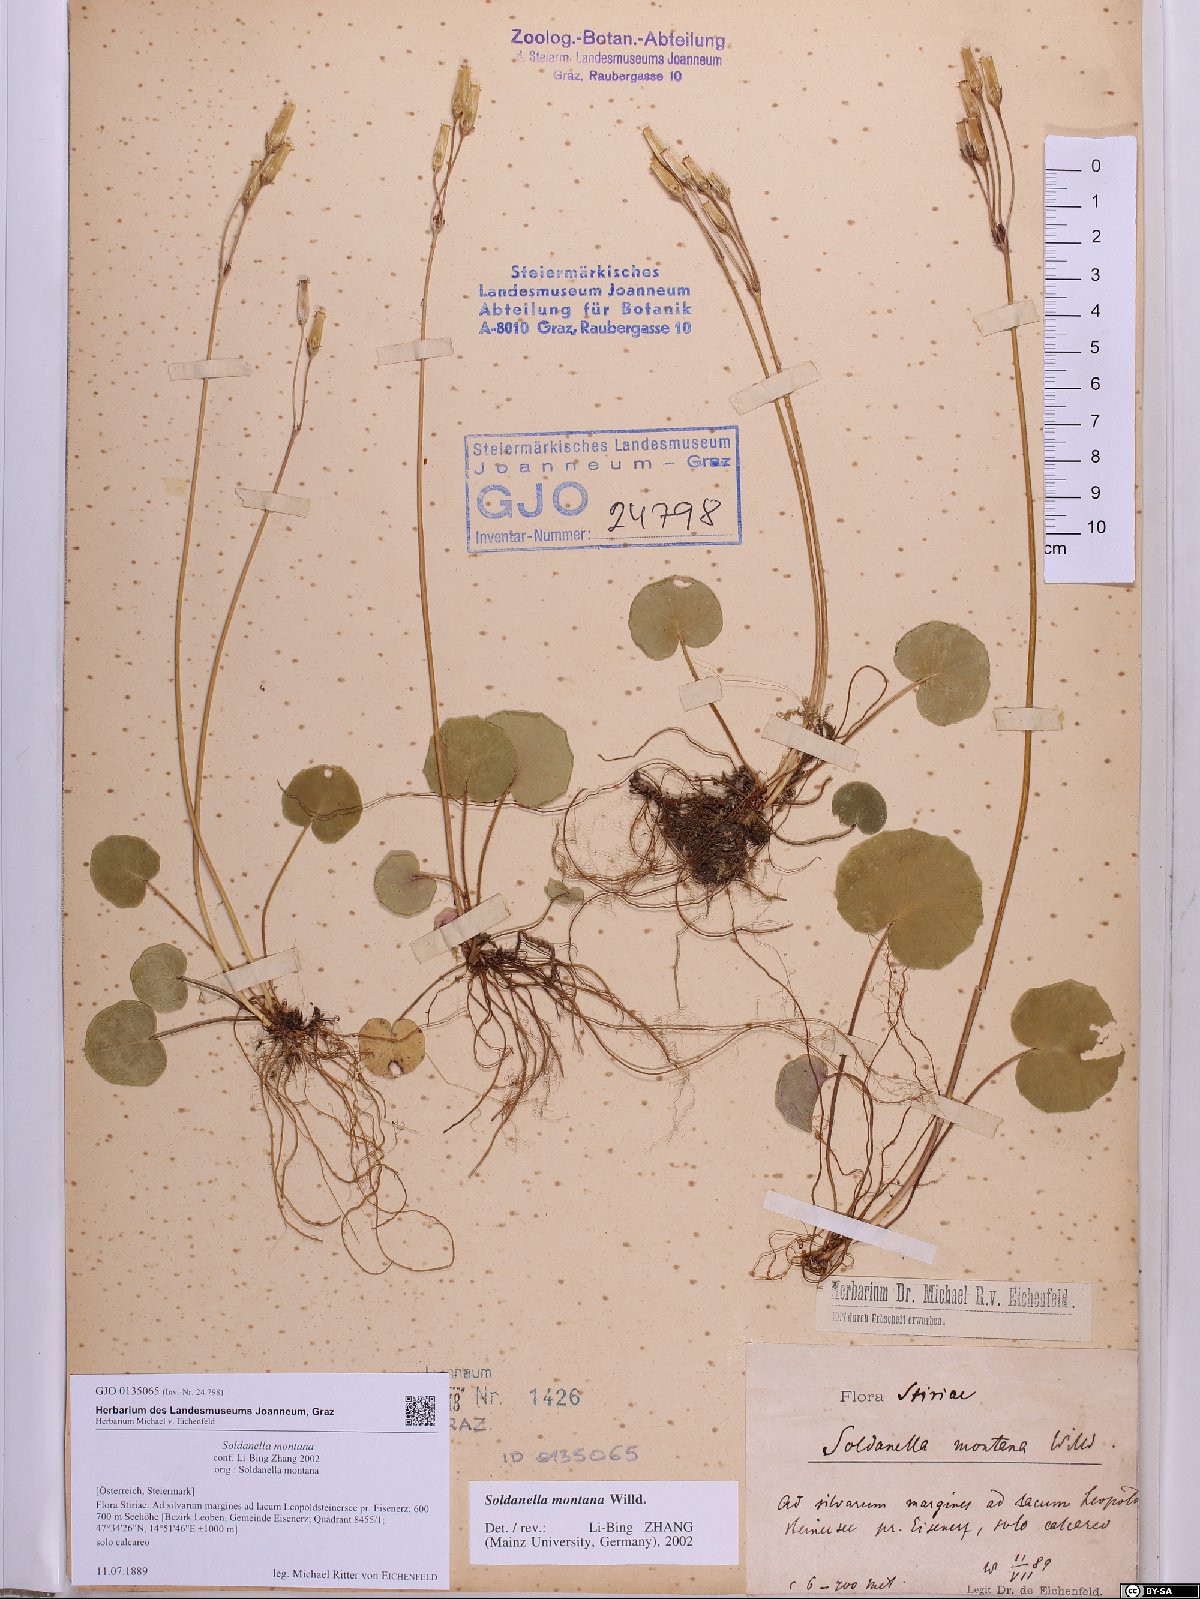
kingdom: Plantae
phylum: Tracheophyta
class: Magnoliopsida
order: Ericales
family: Primulaceae
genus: Soldanella
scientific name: Soldanella montana
